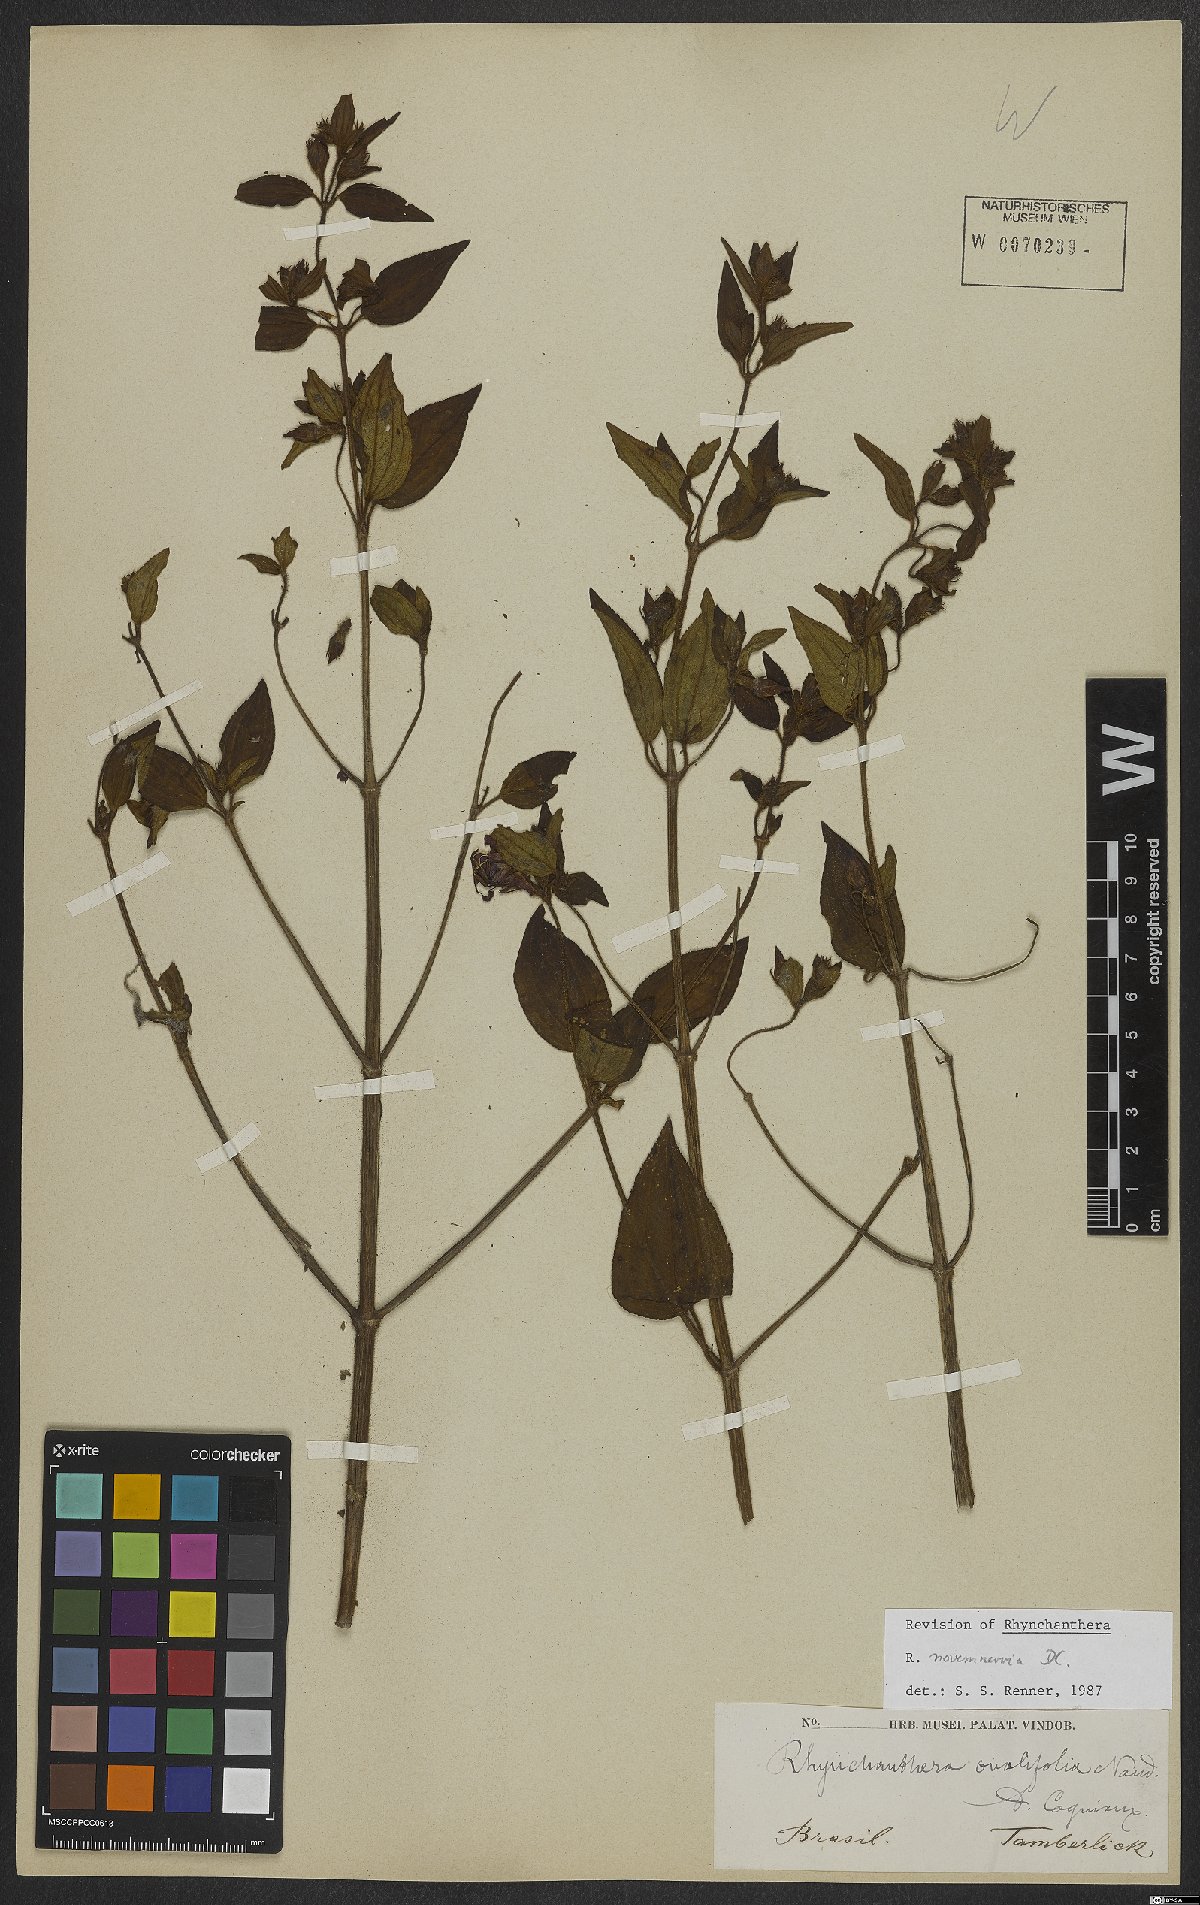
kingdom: Plantae
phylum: Tracheophyta
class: Magnoliopsida
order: Myrtales
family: Melastomataceae
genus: Rhynchanthera
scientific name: Rhynchanthera novemnervia
